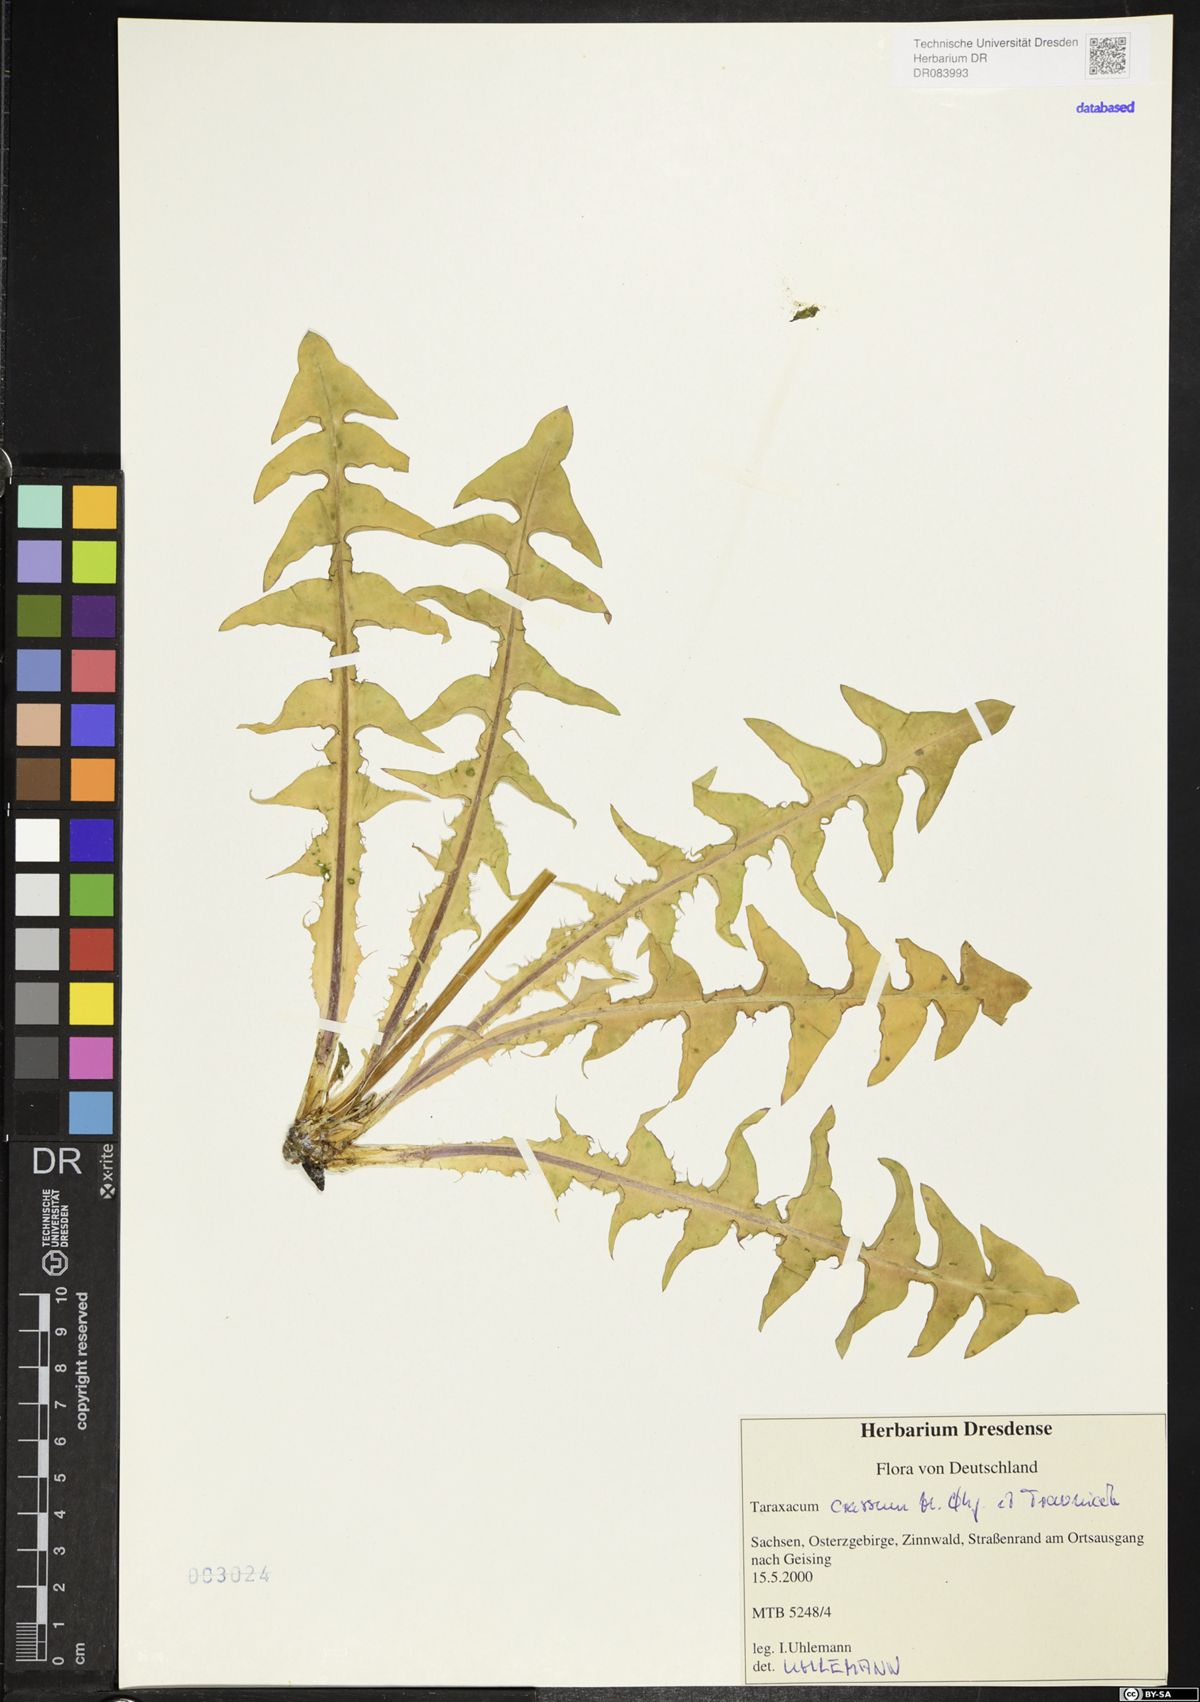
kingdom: Plantae
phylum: Tracheophyta
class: Magnoliopsida
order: Asterales
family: Asteraceae
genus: Taraxacum
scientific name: Taraxacum crassum
